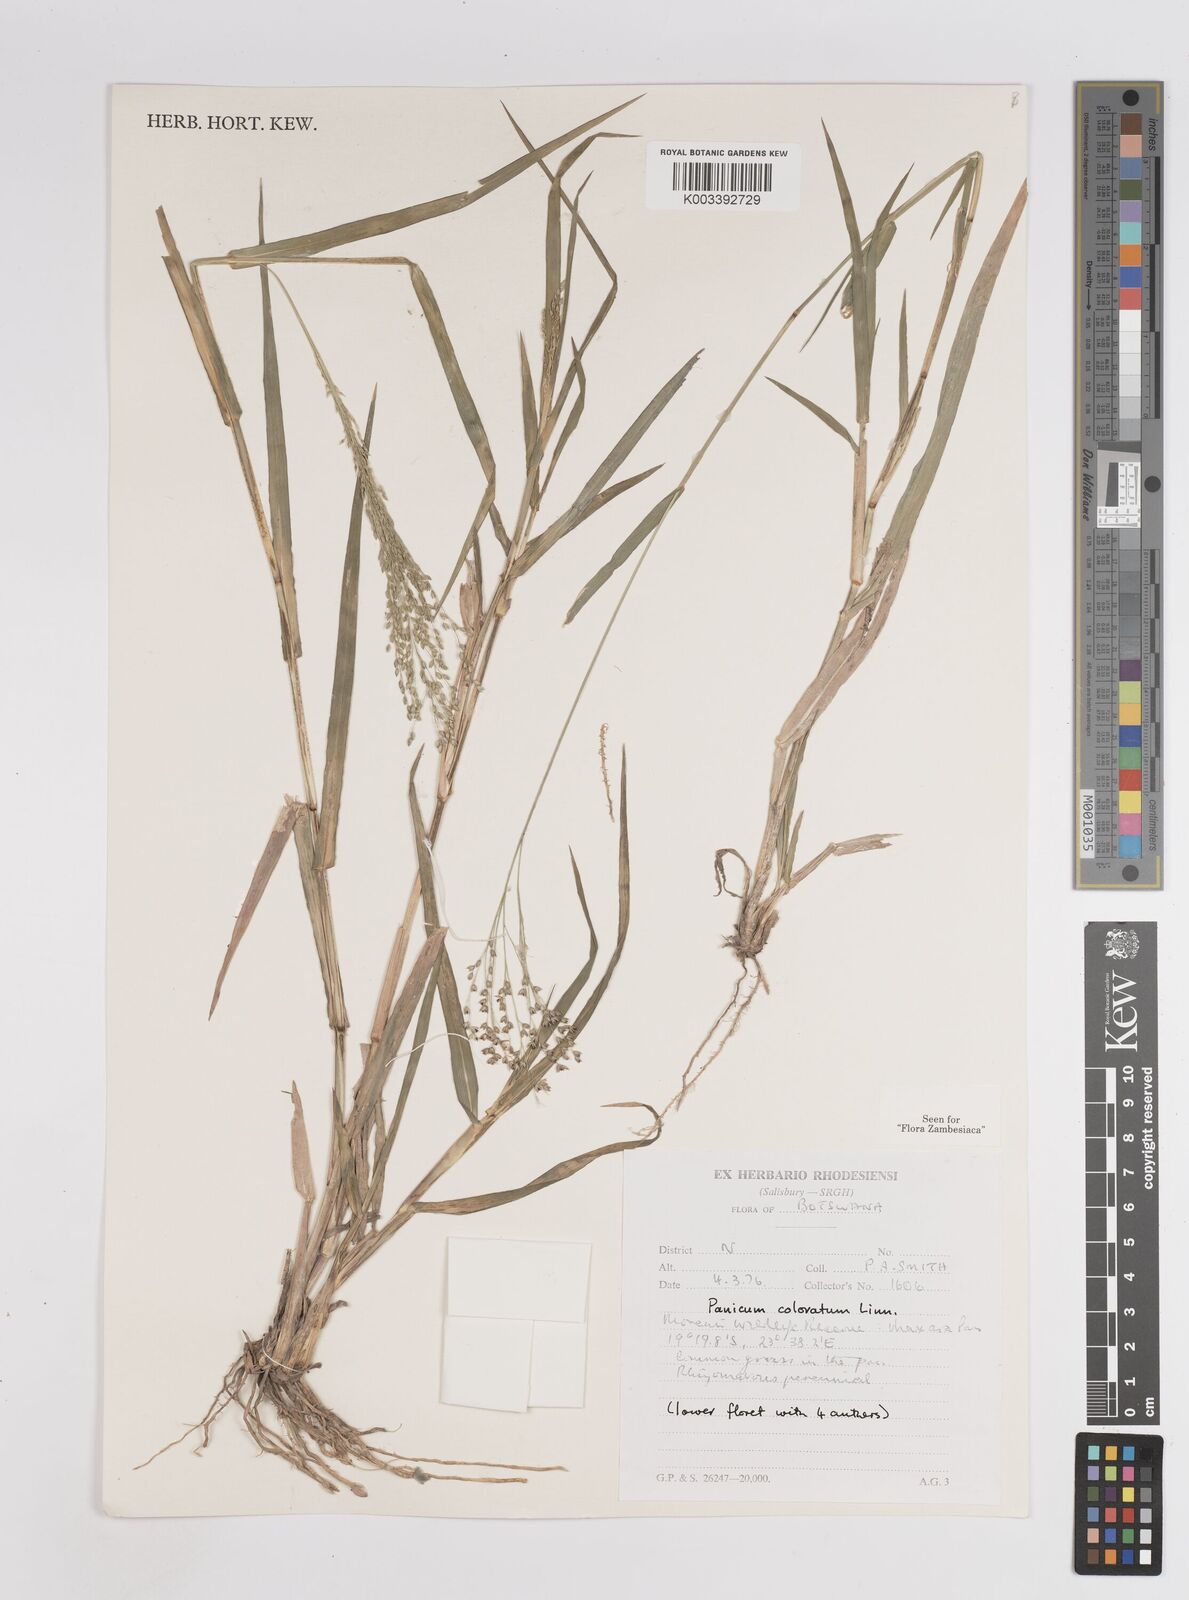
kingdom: Plantae
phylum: Tracheophyta
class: Liliopsida
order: Poales
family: Poaceae
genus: Panicum
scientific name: Panicum coloratum
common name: Kleingrass
